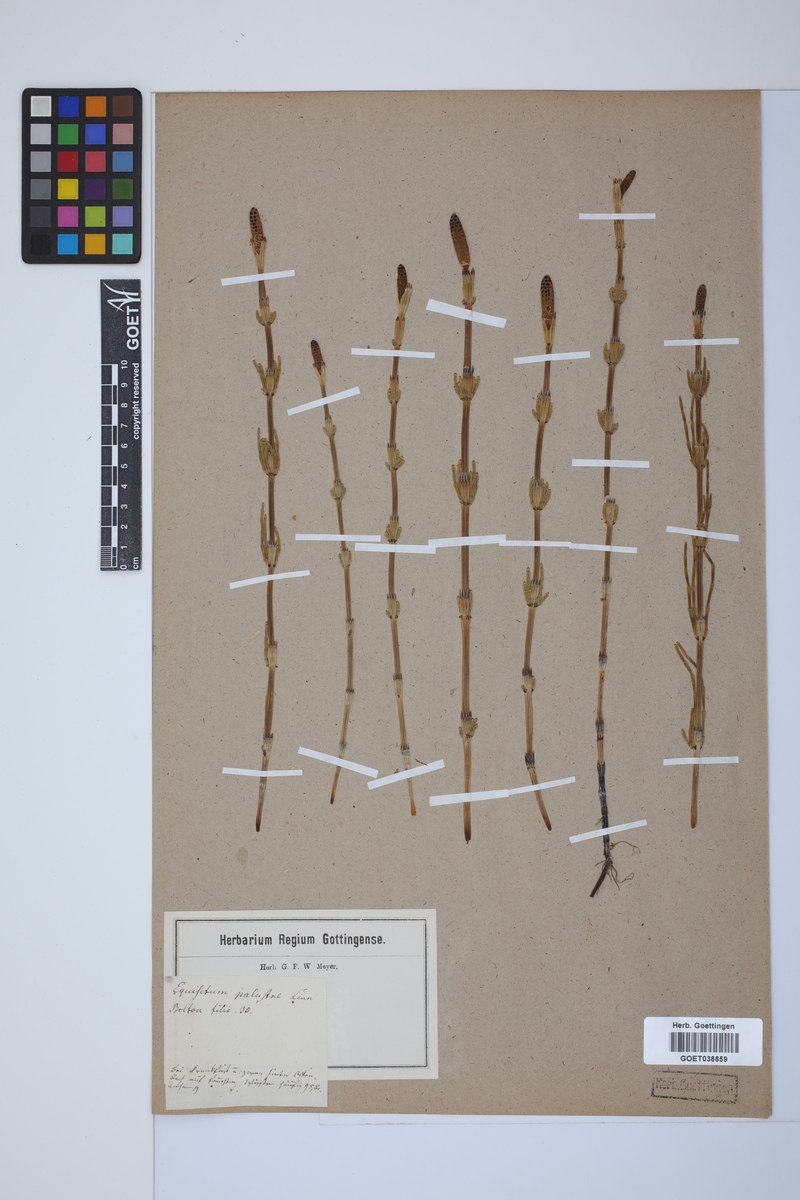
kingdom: Plantae
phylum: Tracheophyta
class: Polypodiopsida
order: Equisetales
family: Equisetaceae
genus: Equisetum
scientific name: Equisetum palustre
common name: Marsh horsetail
